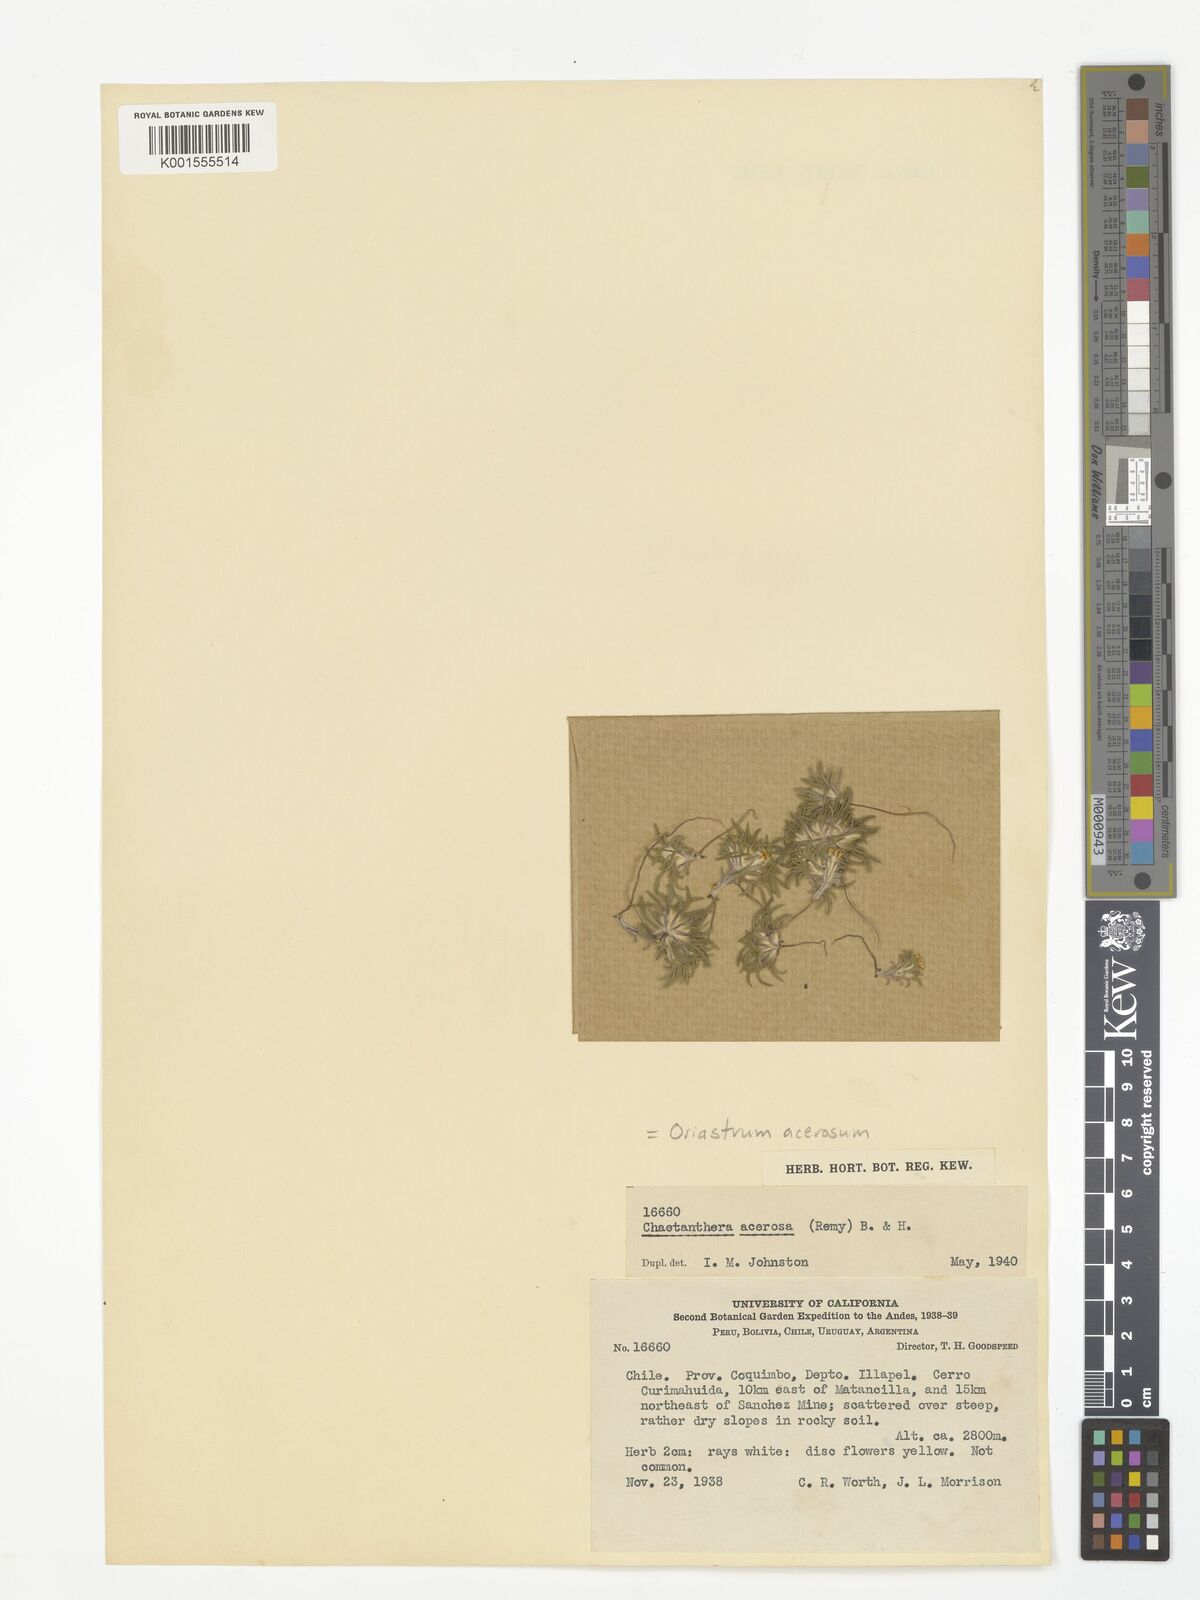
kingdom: Plantae
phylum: Tracheophyta
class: Magnoliopsida
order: Asterales
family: Asteraceae
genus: Oriastrum
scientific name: Oriastrum acerosum
